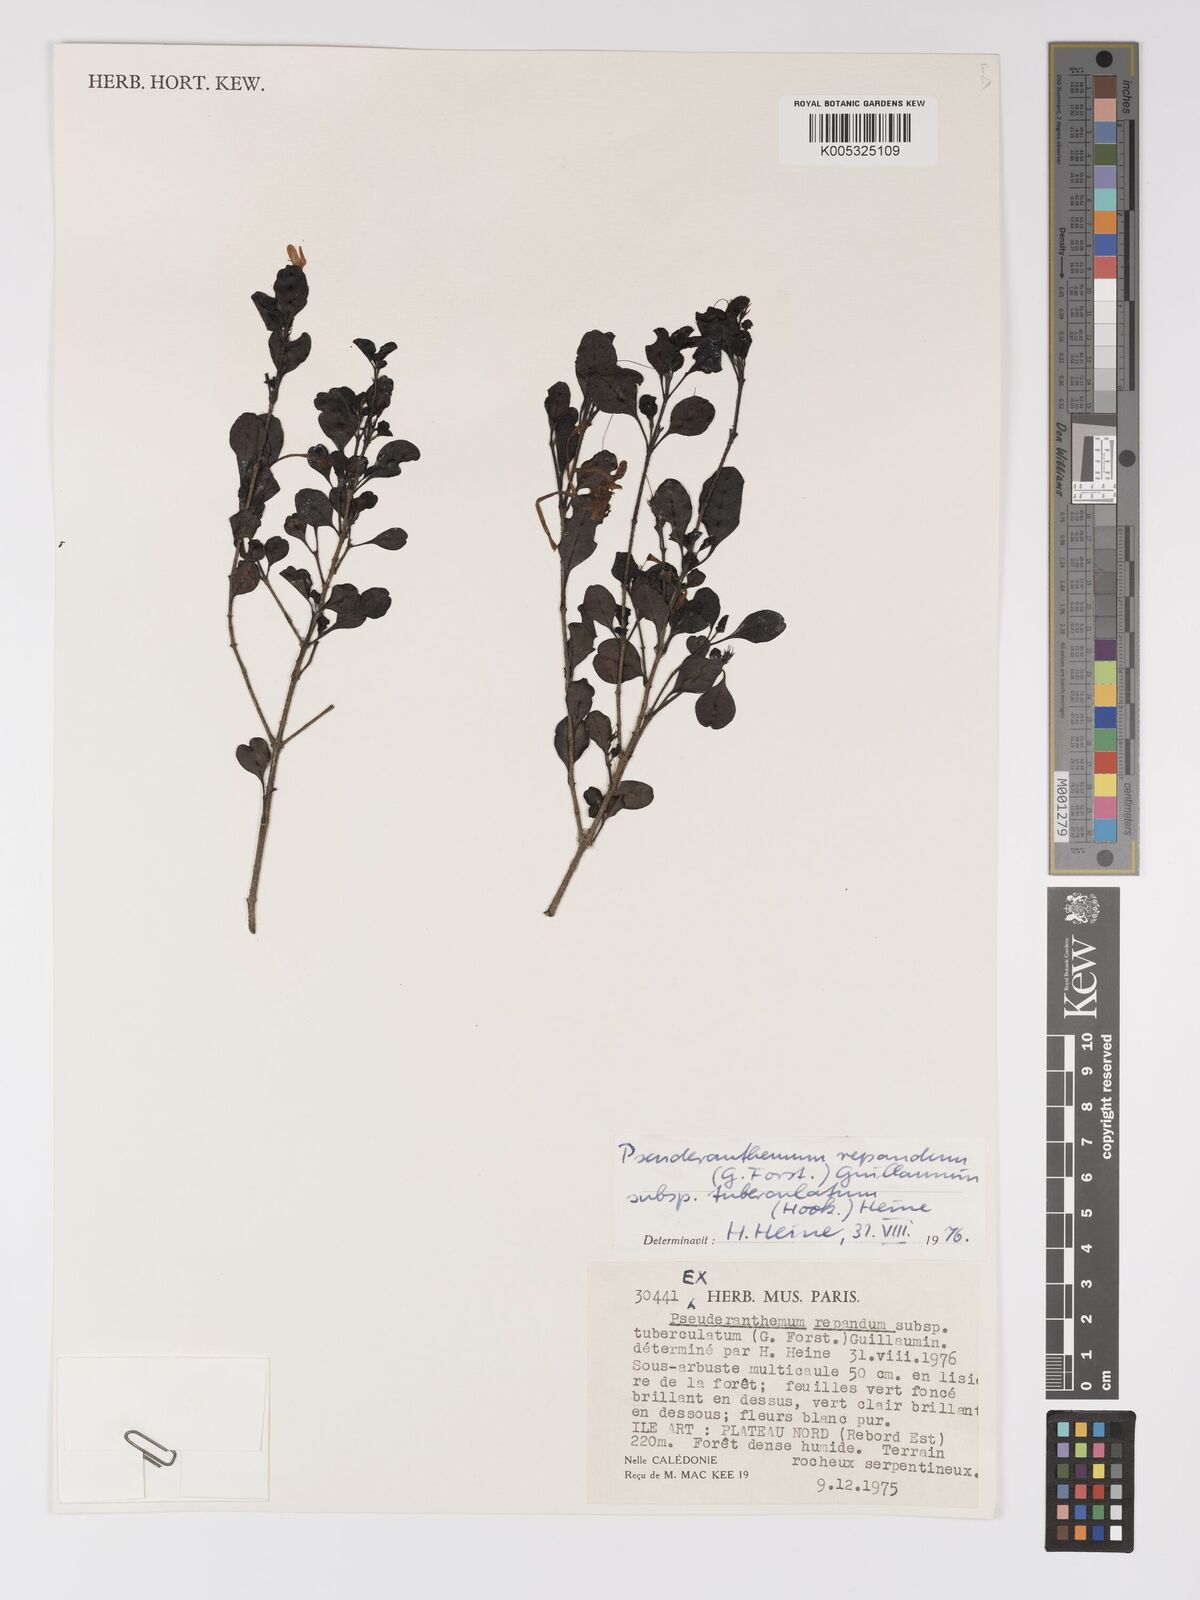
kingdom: Plantae
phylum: Tracheophyta
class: Magnoliopsida
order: Lamiales
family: Acanthaceae
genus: Pseuderanthemum
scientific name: Pseuderanthemum repandum
